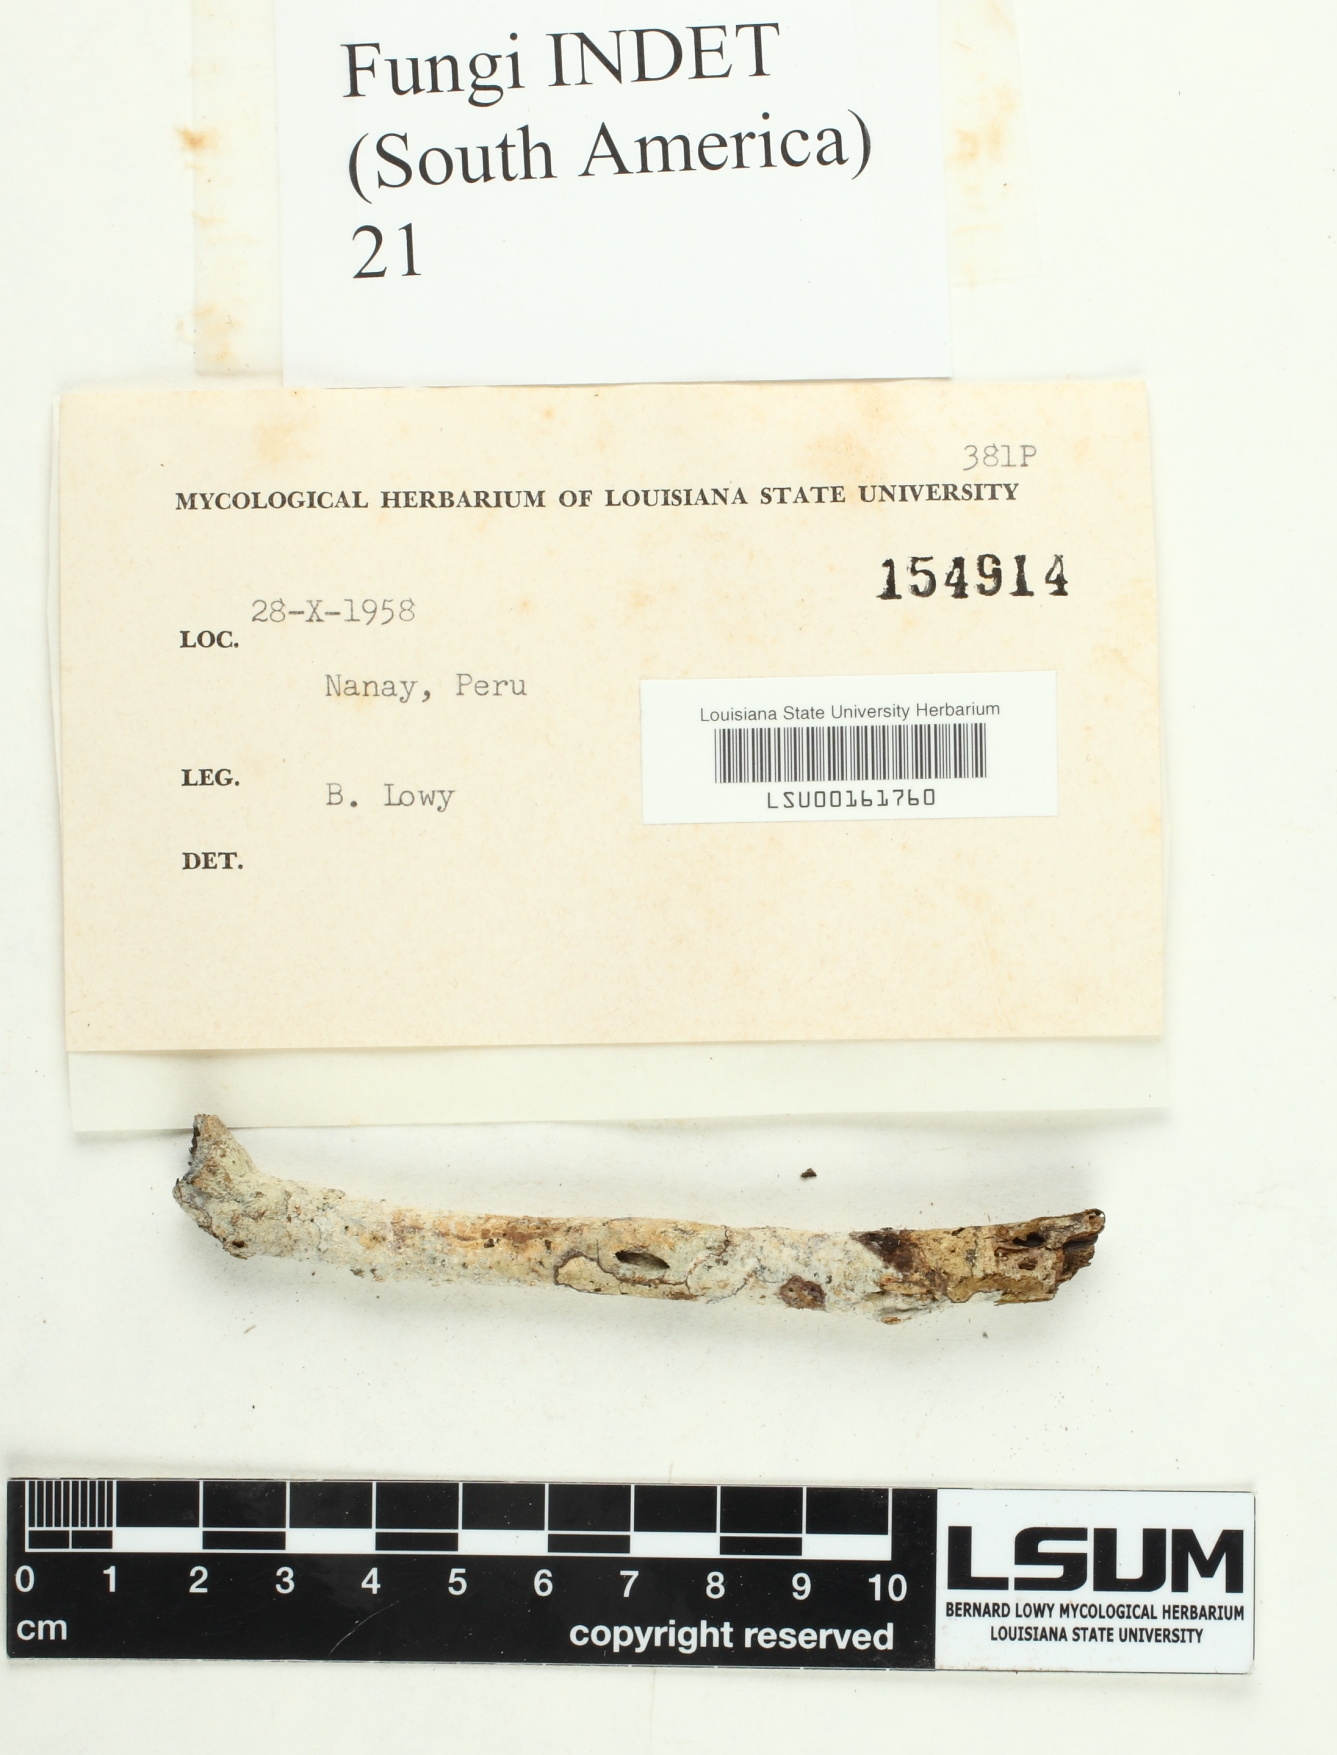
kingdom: Fungi
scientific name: Fungi
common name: Fungi
